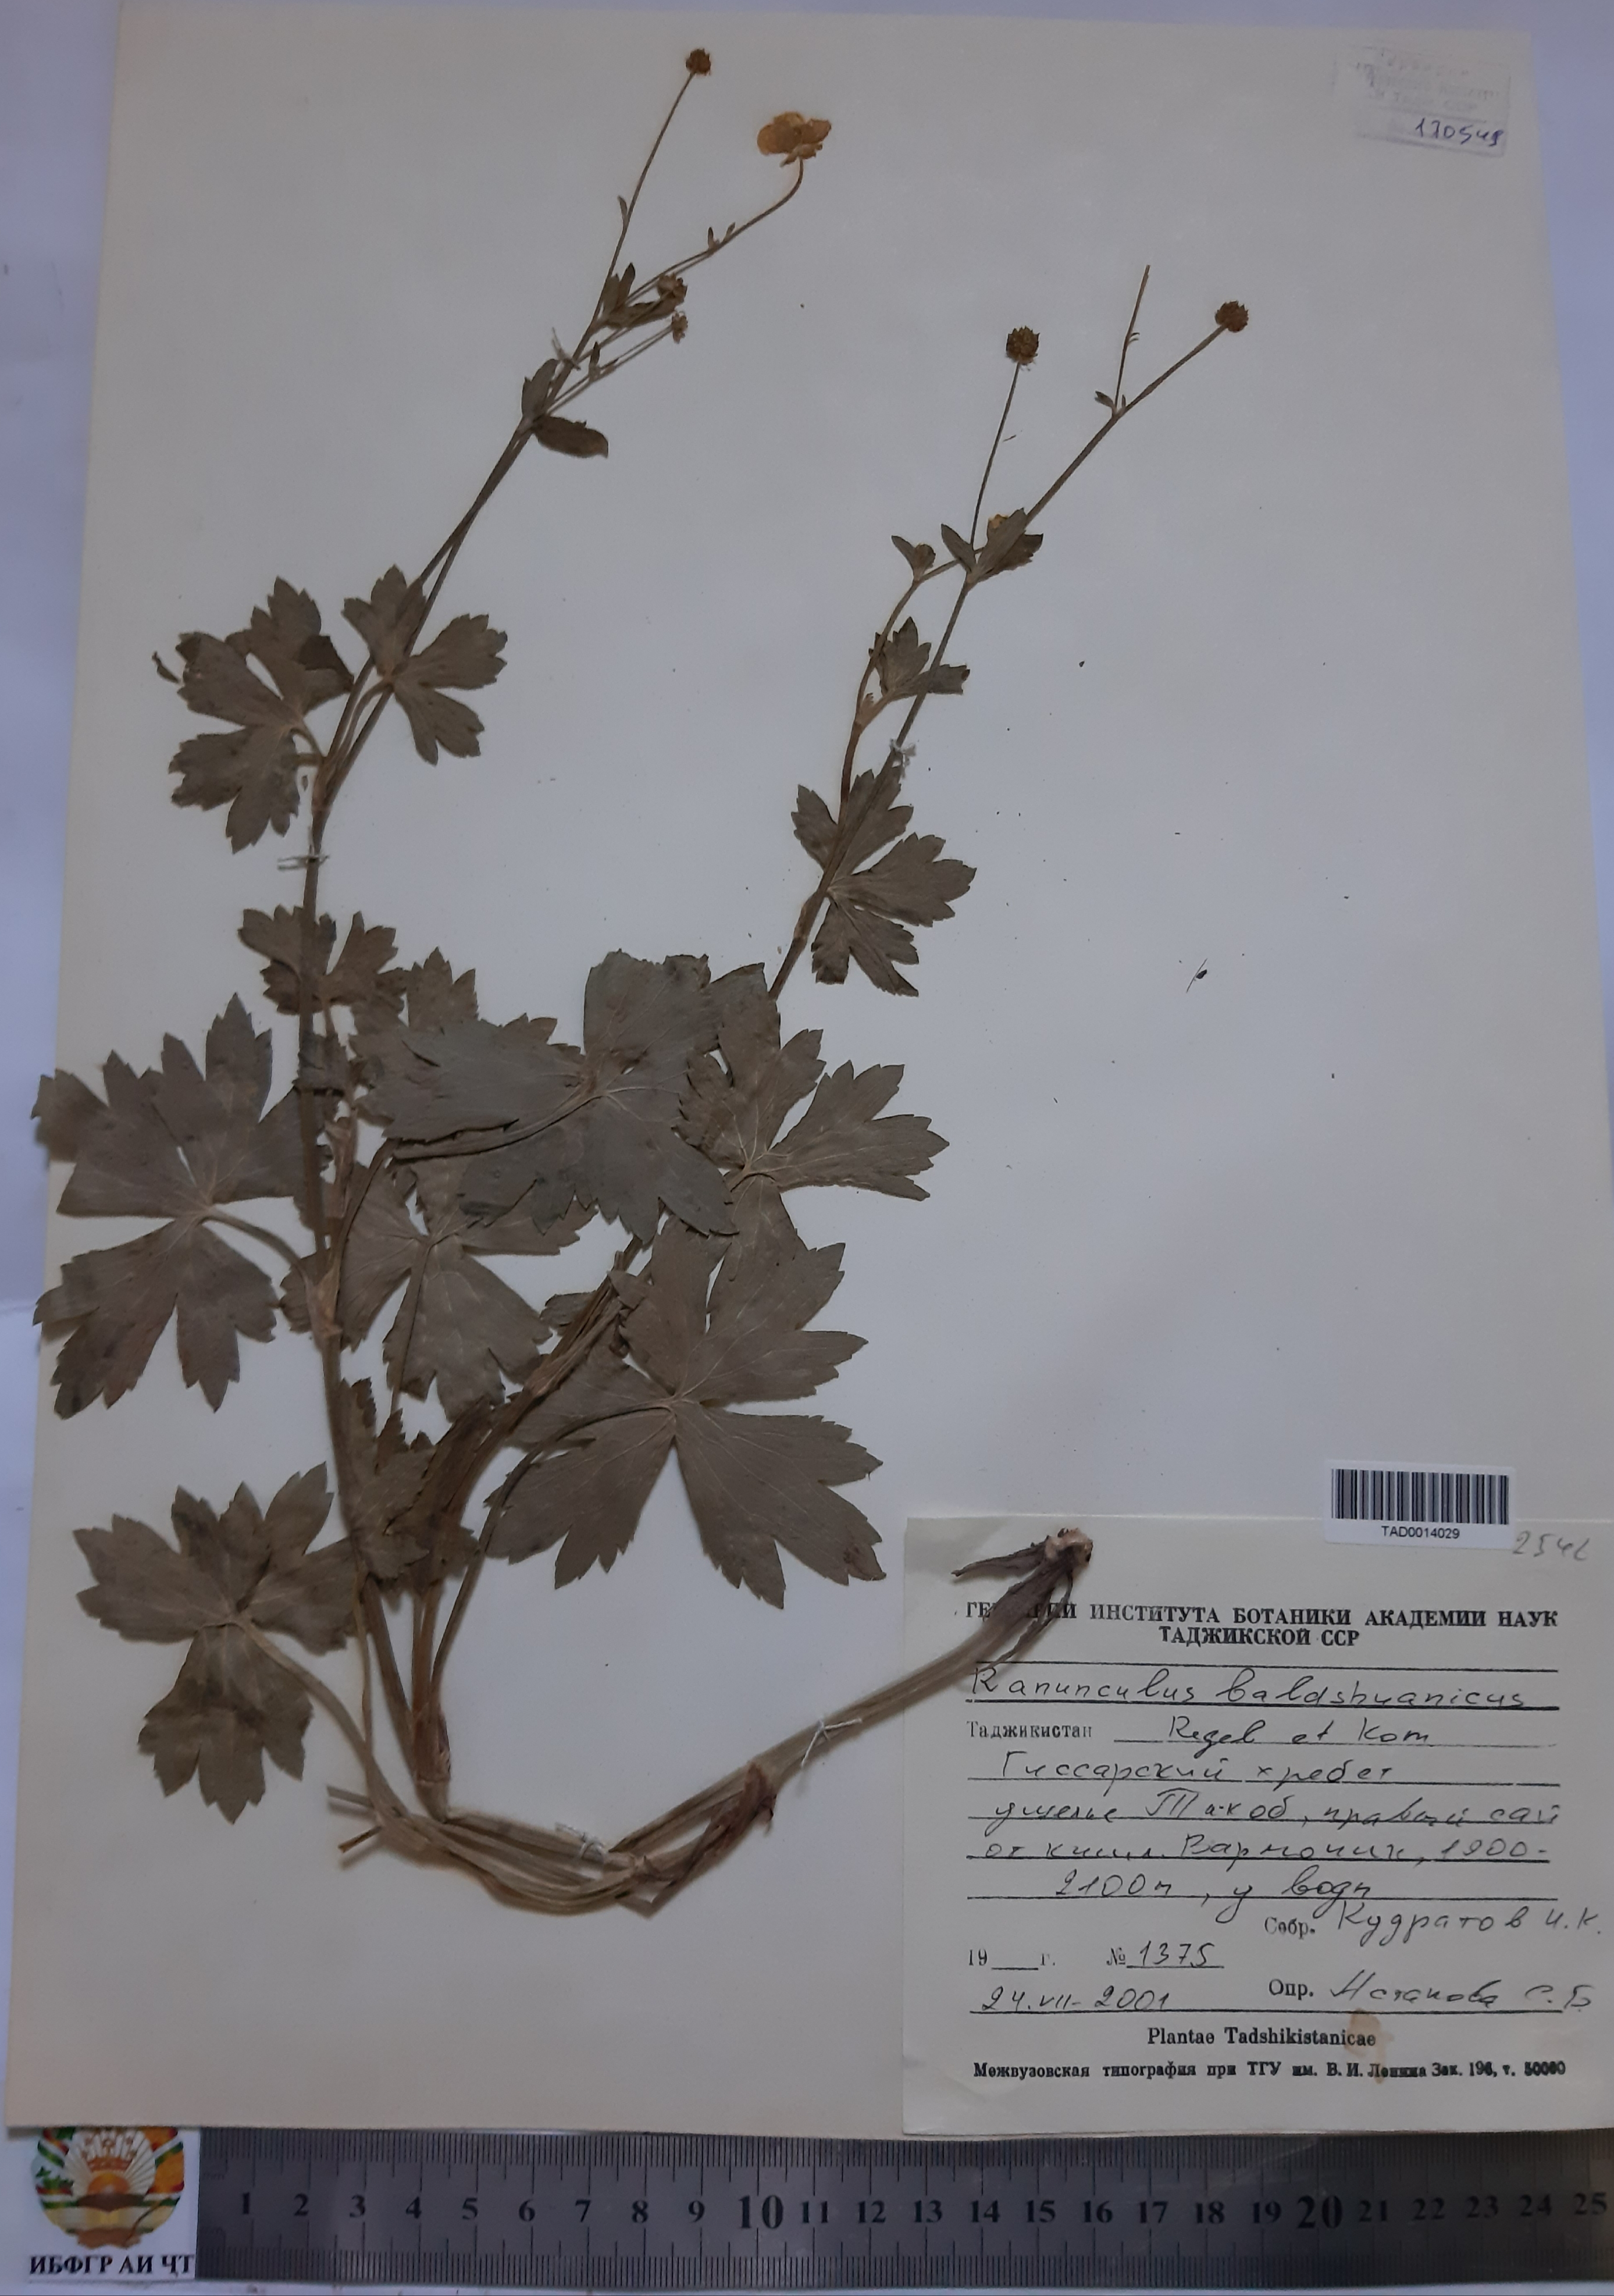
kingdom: Plantae
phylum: Tracheophyta
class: Magnoliopsida
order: Ranunculales
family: Ranunculaceae
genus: Ranunculus
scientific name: Ranunculus baldshuanicus
